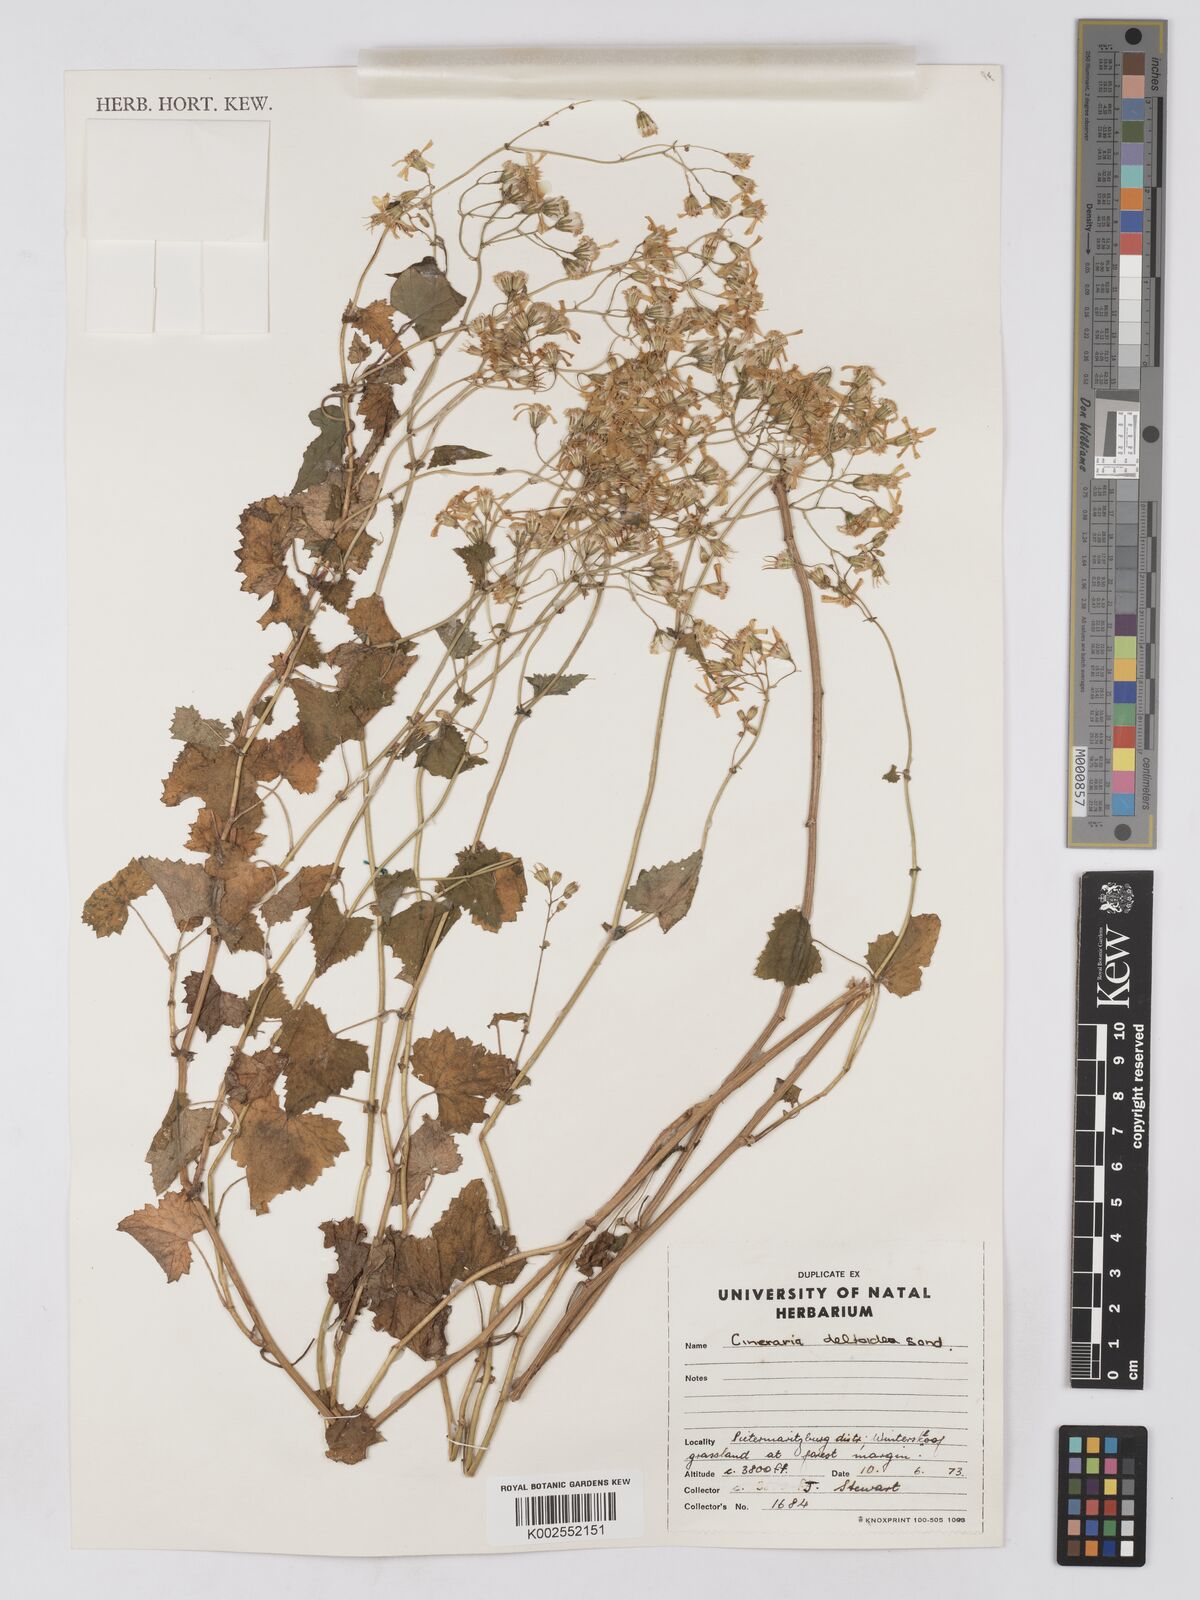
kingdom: Plantae
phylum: Tracheophyta
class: Magnoliopsida
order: Asterales
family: Asteraceae
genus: Cineraria
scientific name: Cineraria deltoidea
